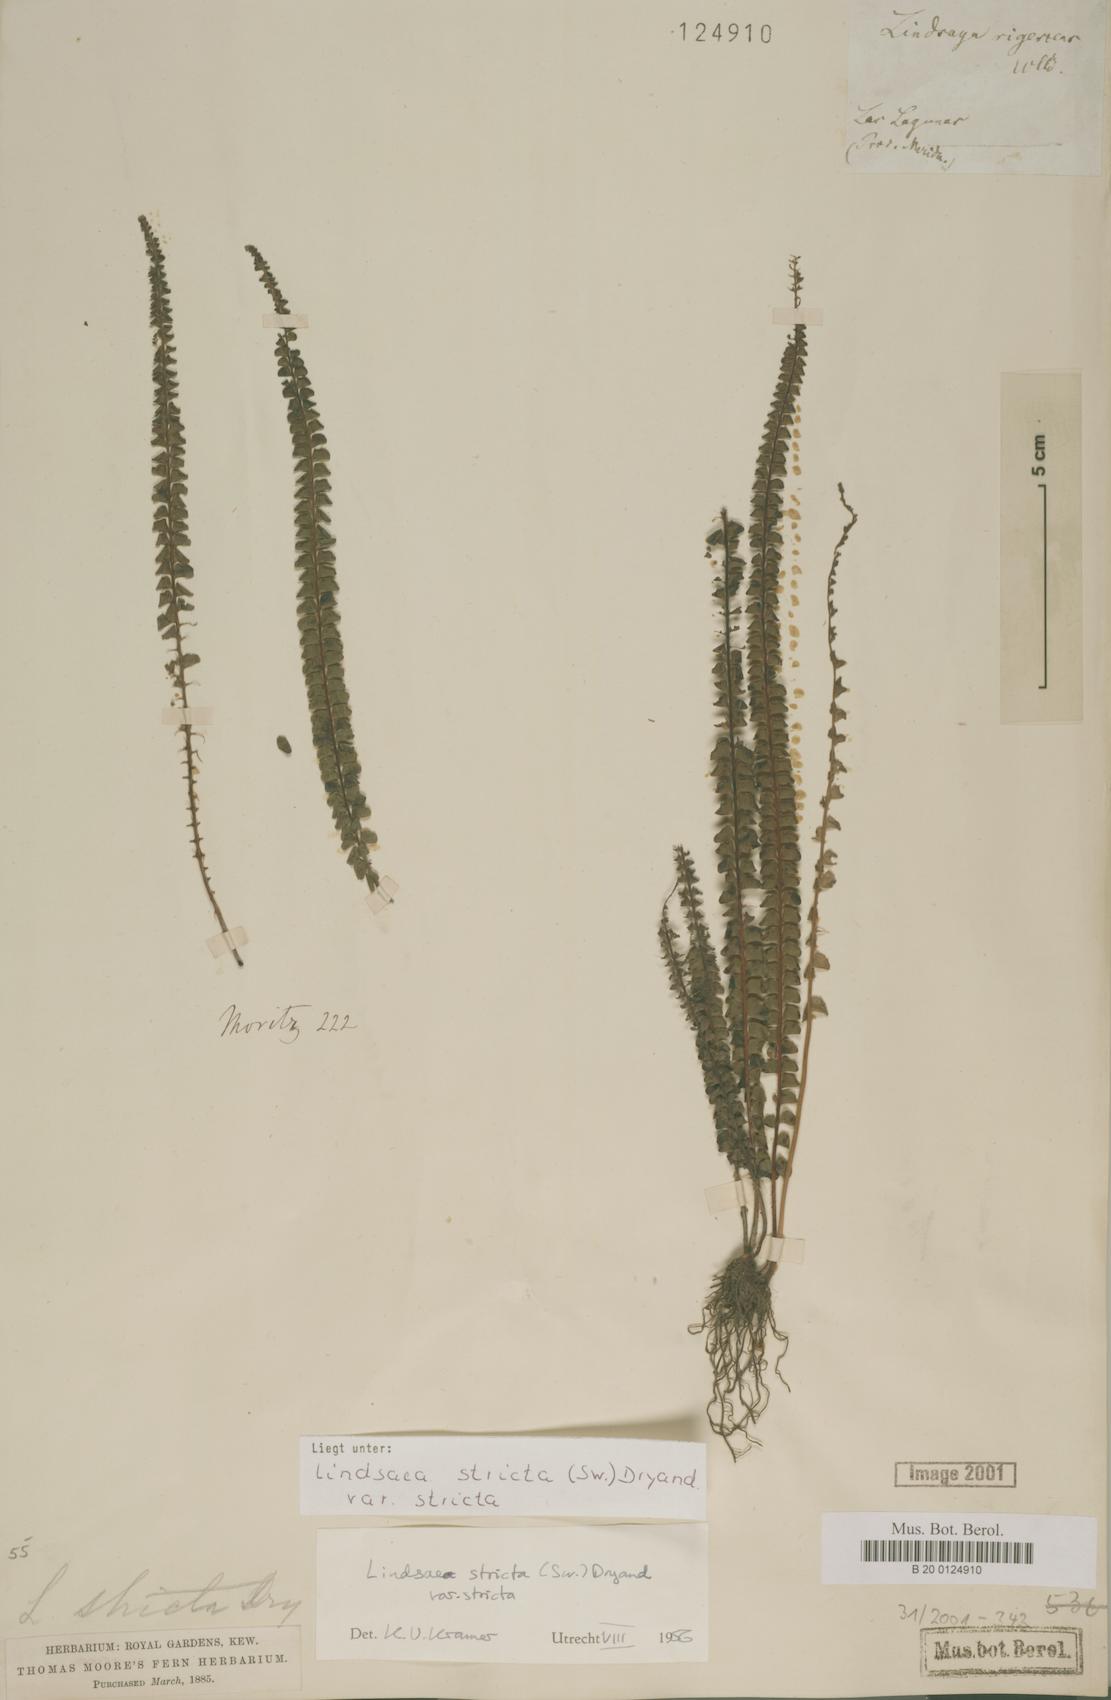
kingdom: Plantae
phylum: Tracheophyta
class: Polypodiopsida
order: Polypodiales
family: Lindsaeaceae
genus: Lindsaea
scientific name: Lindsaea stricta
